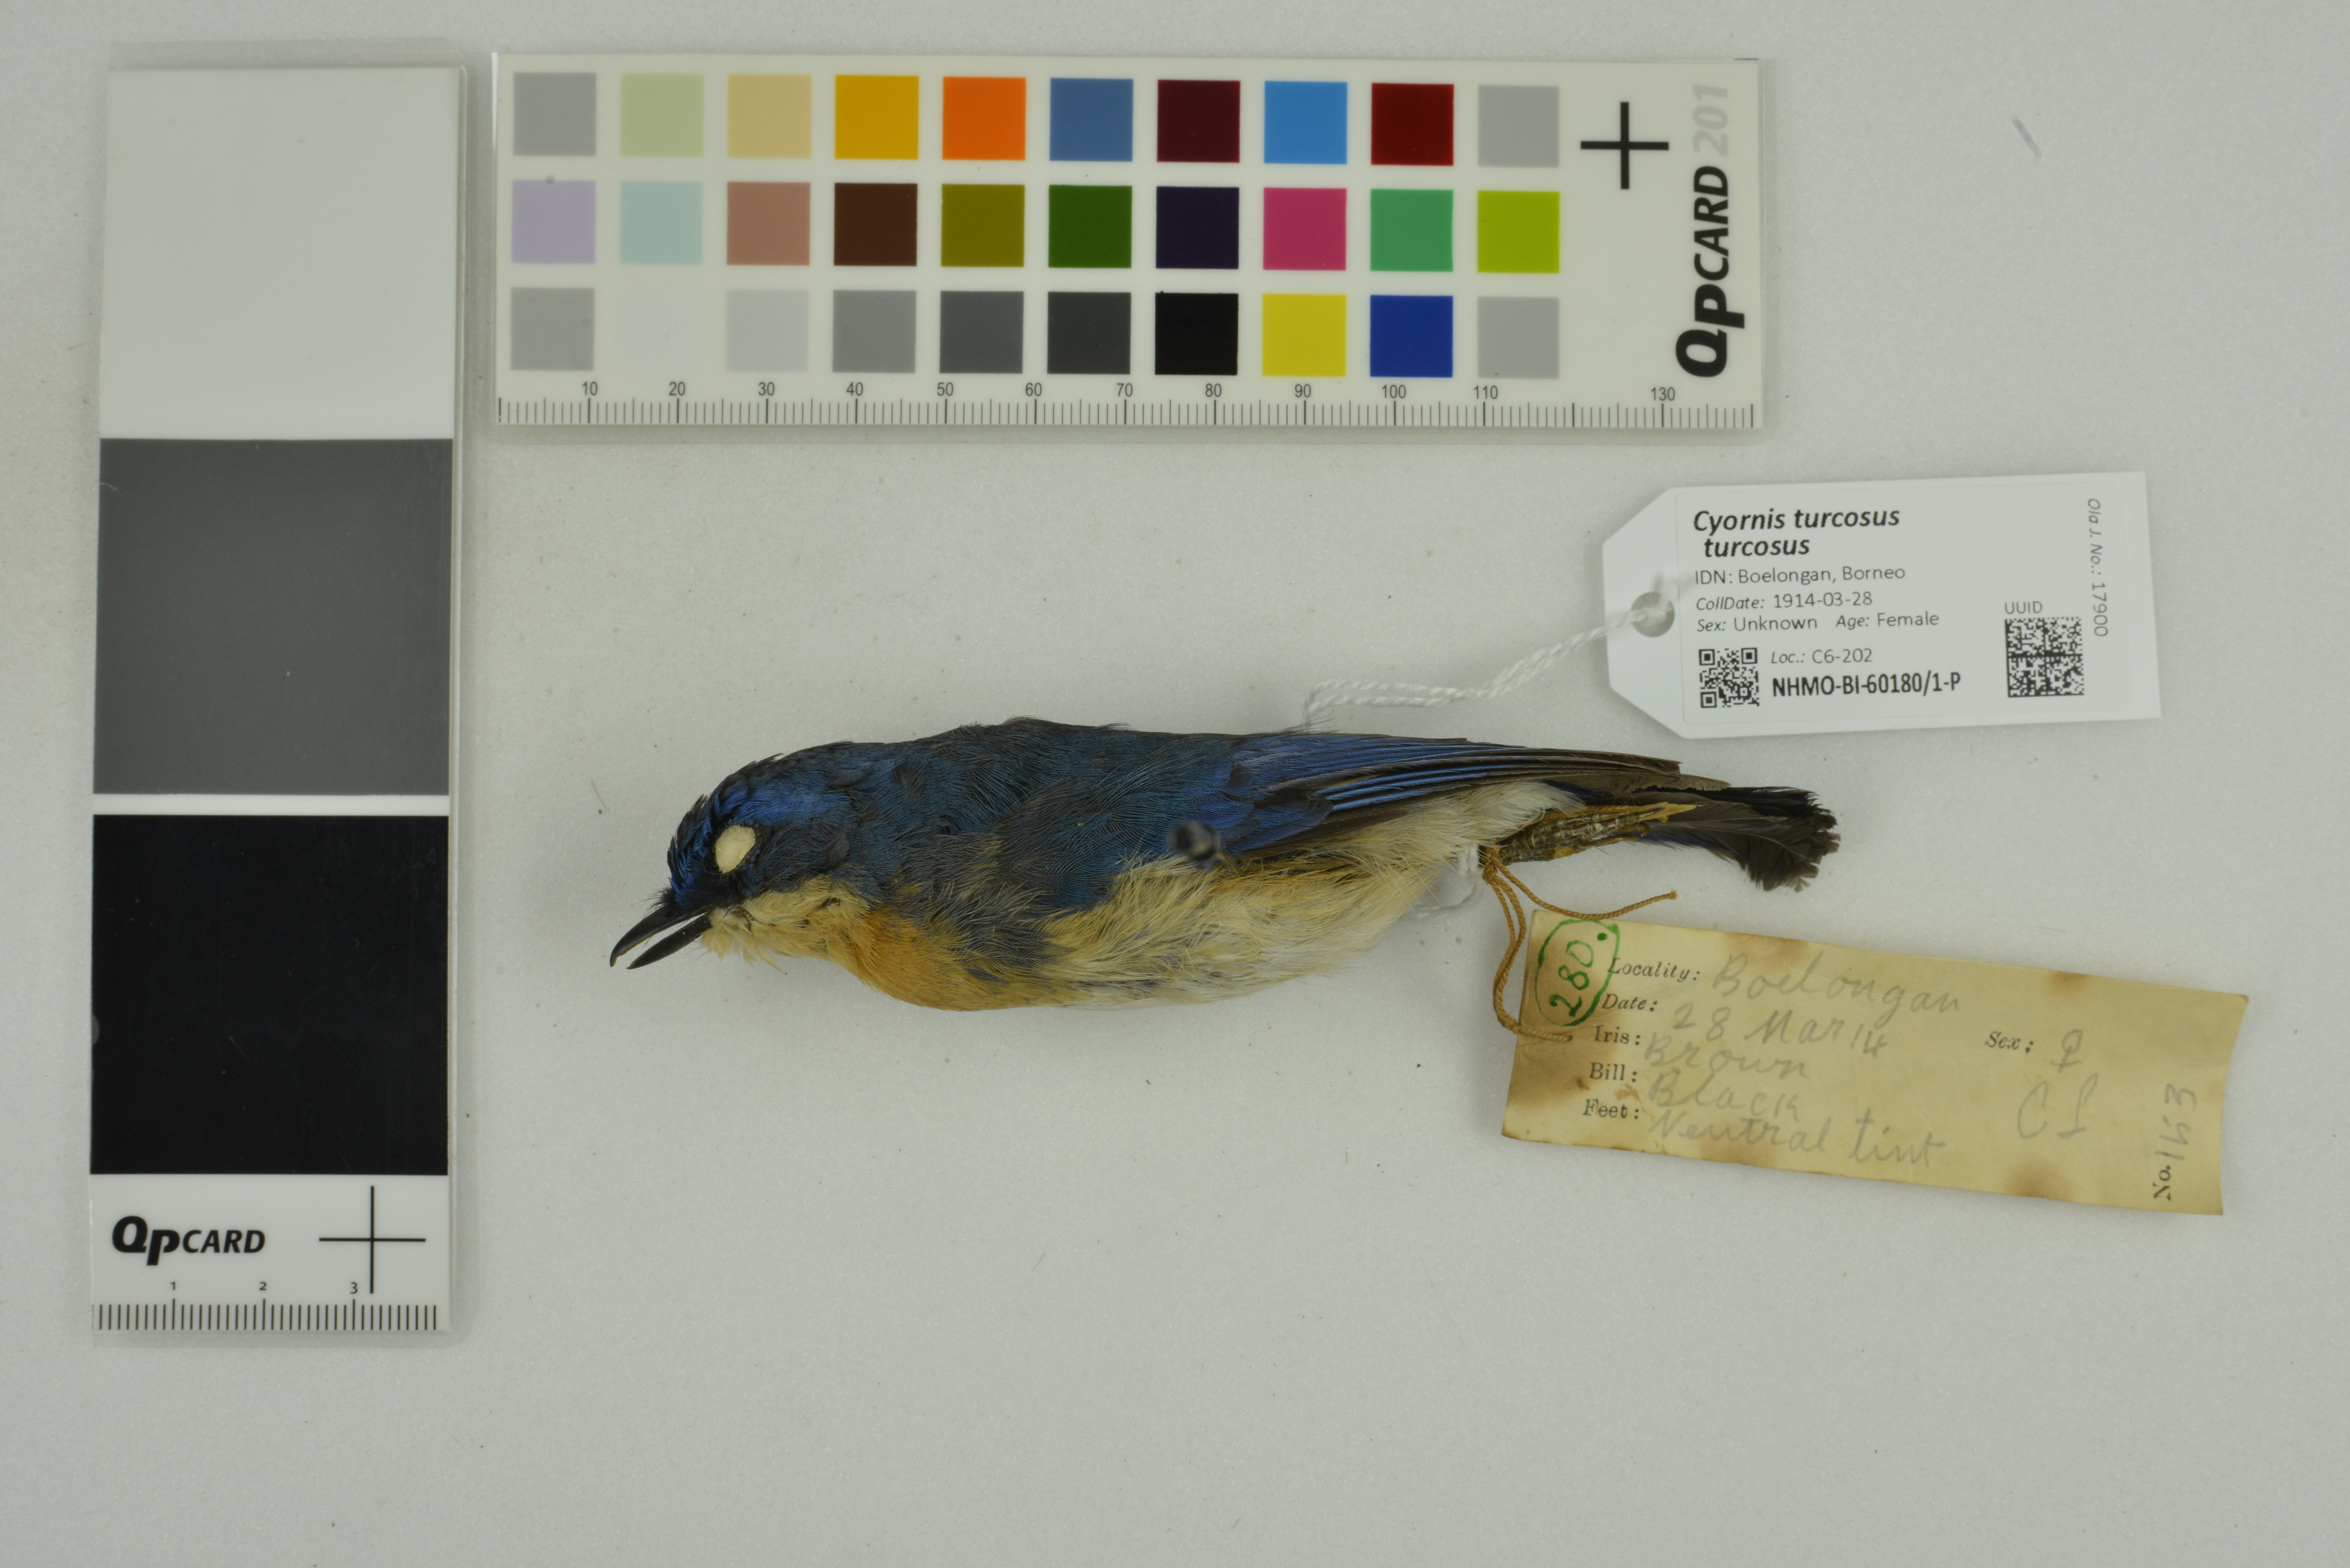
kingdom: Animalia
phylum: Chordata
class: Aves
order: Passeriformes
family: Muscicapidae
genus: Cyornis
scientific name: Cyornis turcosus
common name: Malaysian blue flycatcher
